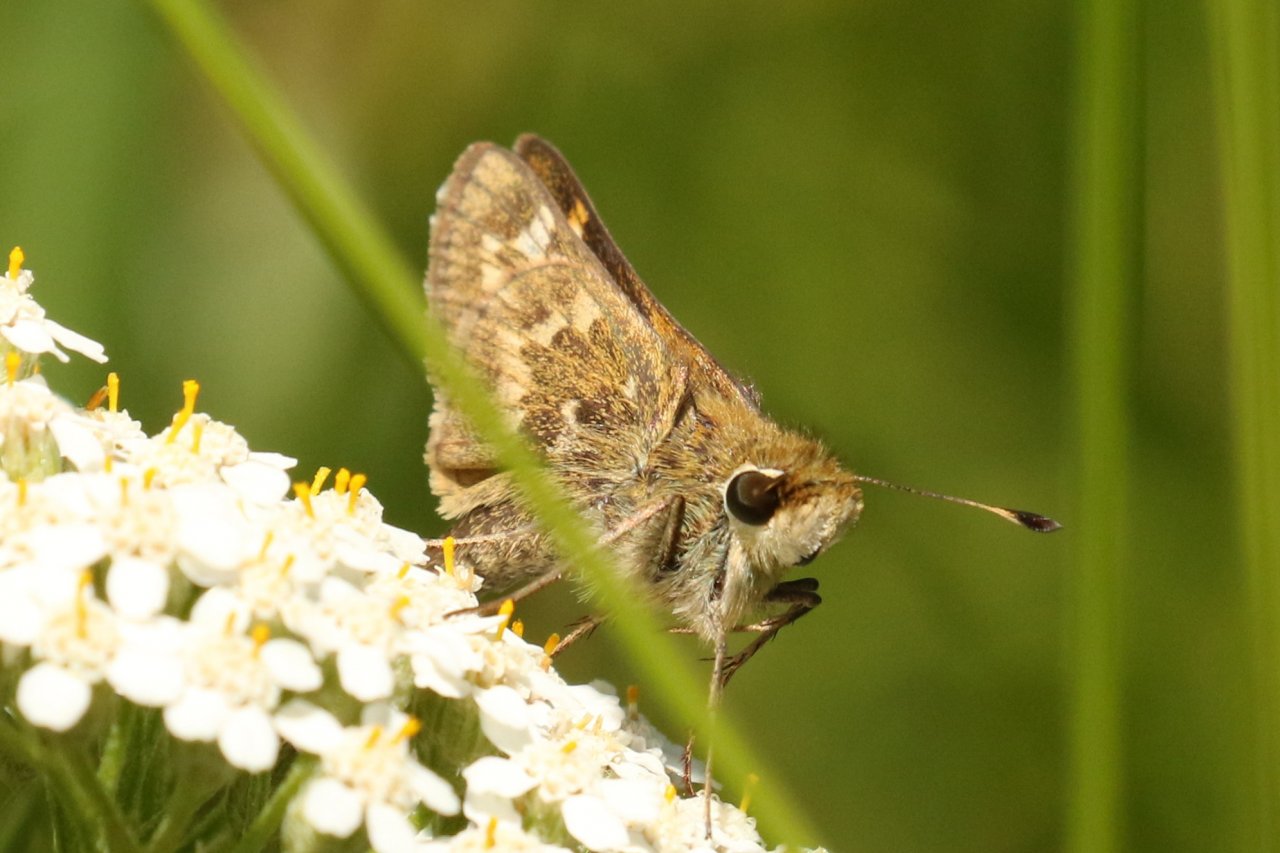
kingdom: Animalia
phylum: Arthropoda
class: Insecta
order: Lepidoptera
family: Hesperiidae
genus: Atalopedes
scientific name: Atalopedes campestris
